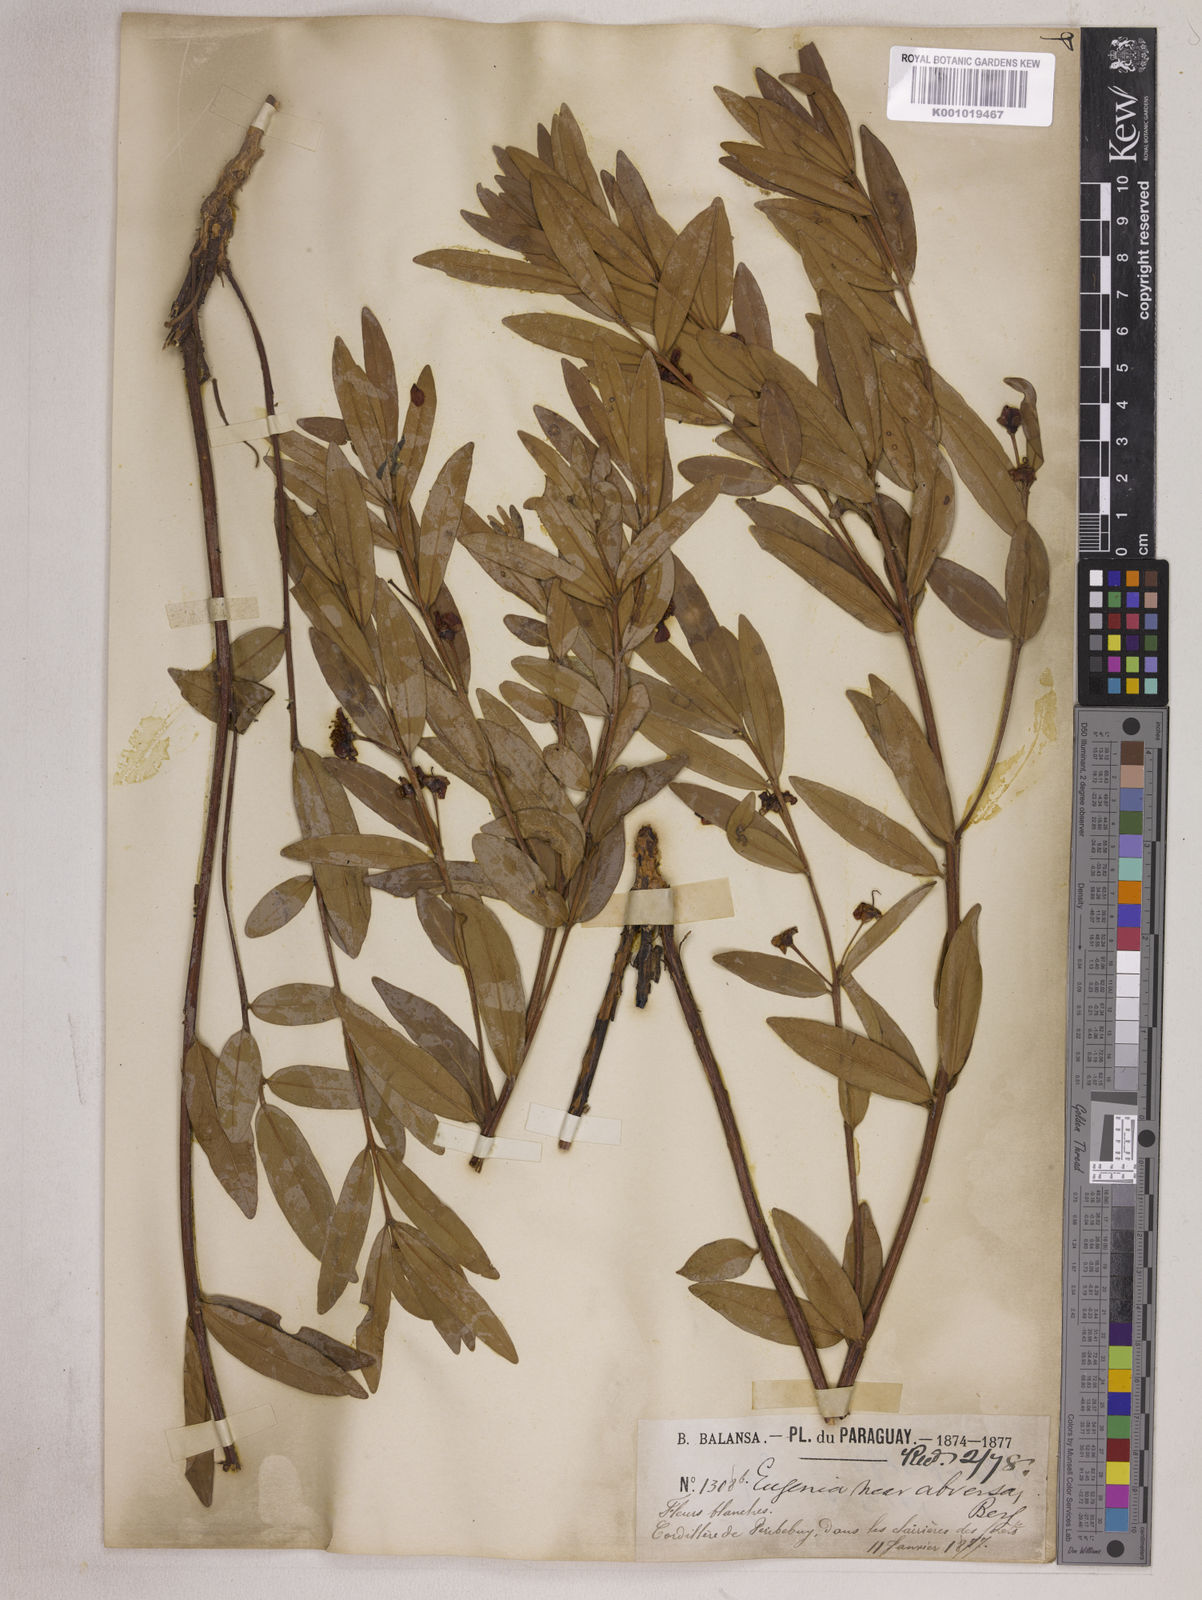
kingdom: Plantae
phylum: Tracheophyta
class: Magnoliopsida
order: Myrtales
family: Myrtaceae
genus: Eugenia
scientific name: Eugenia punicifolia
